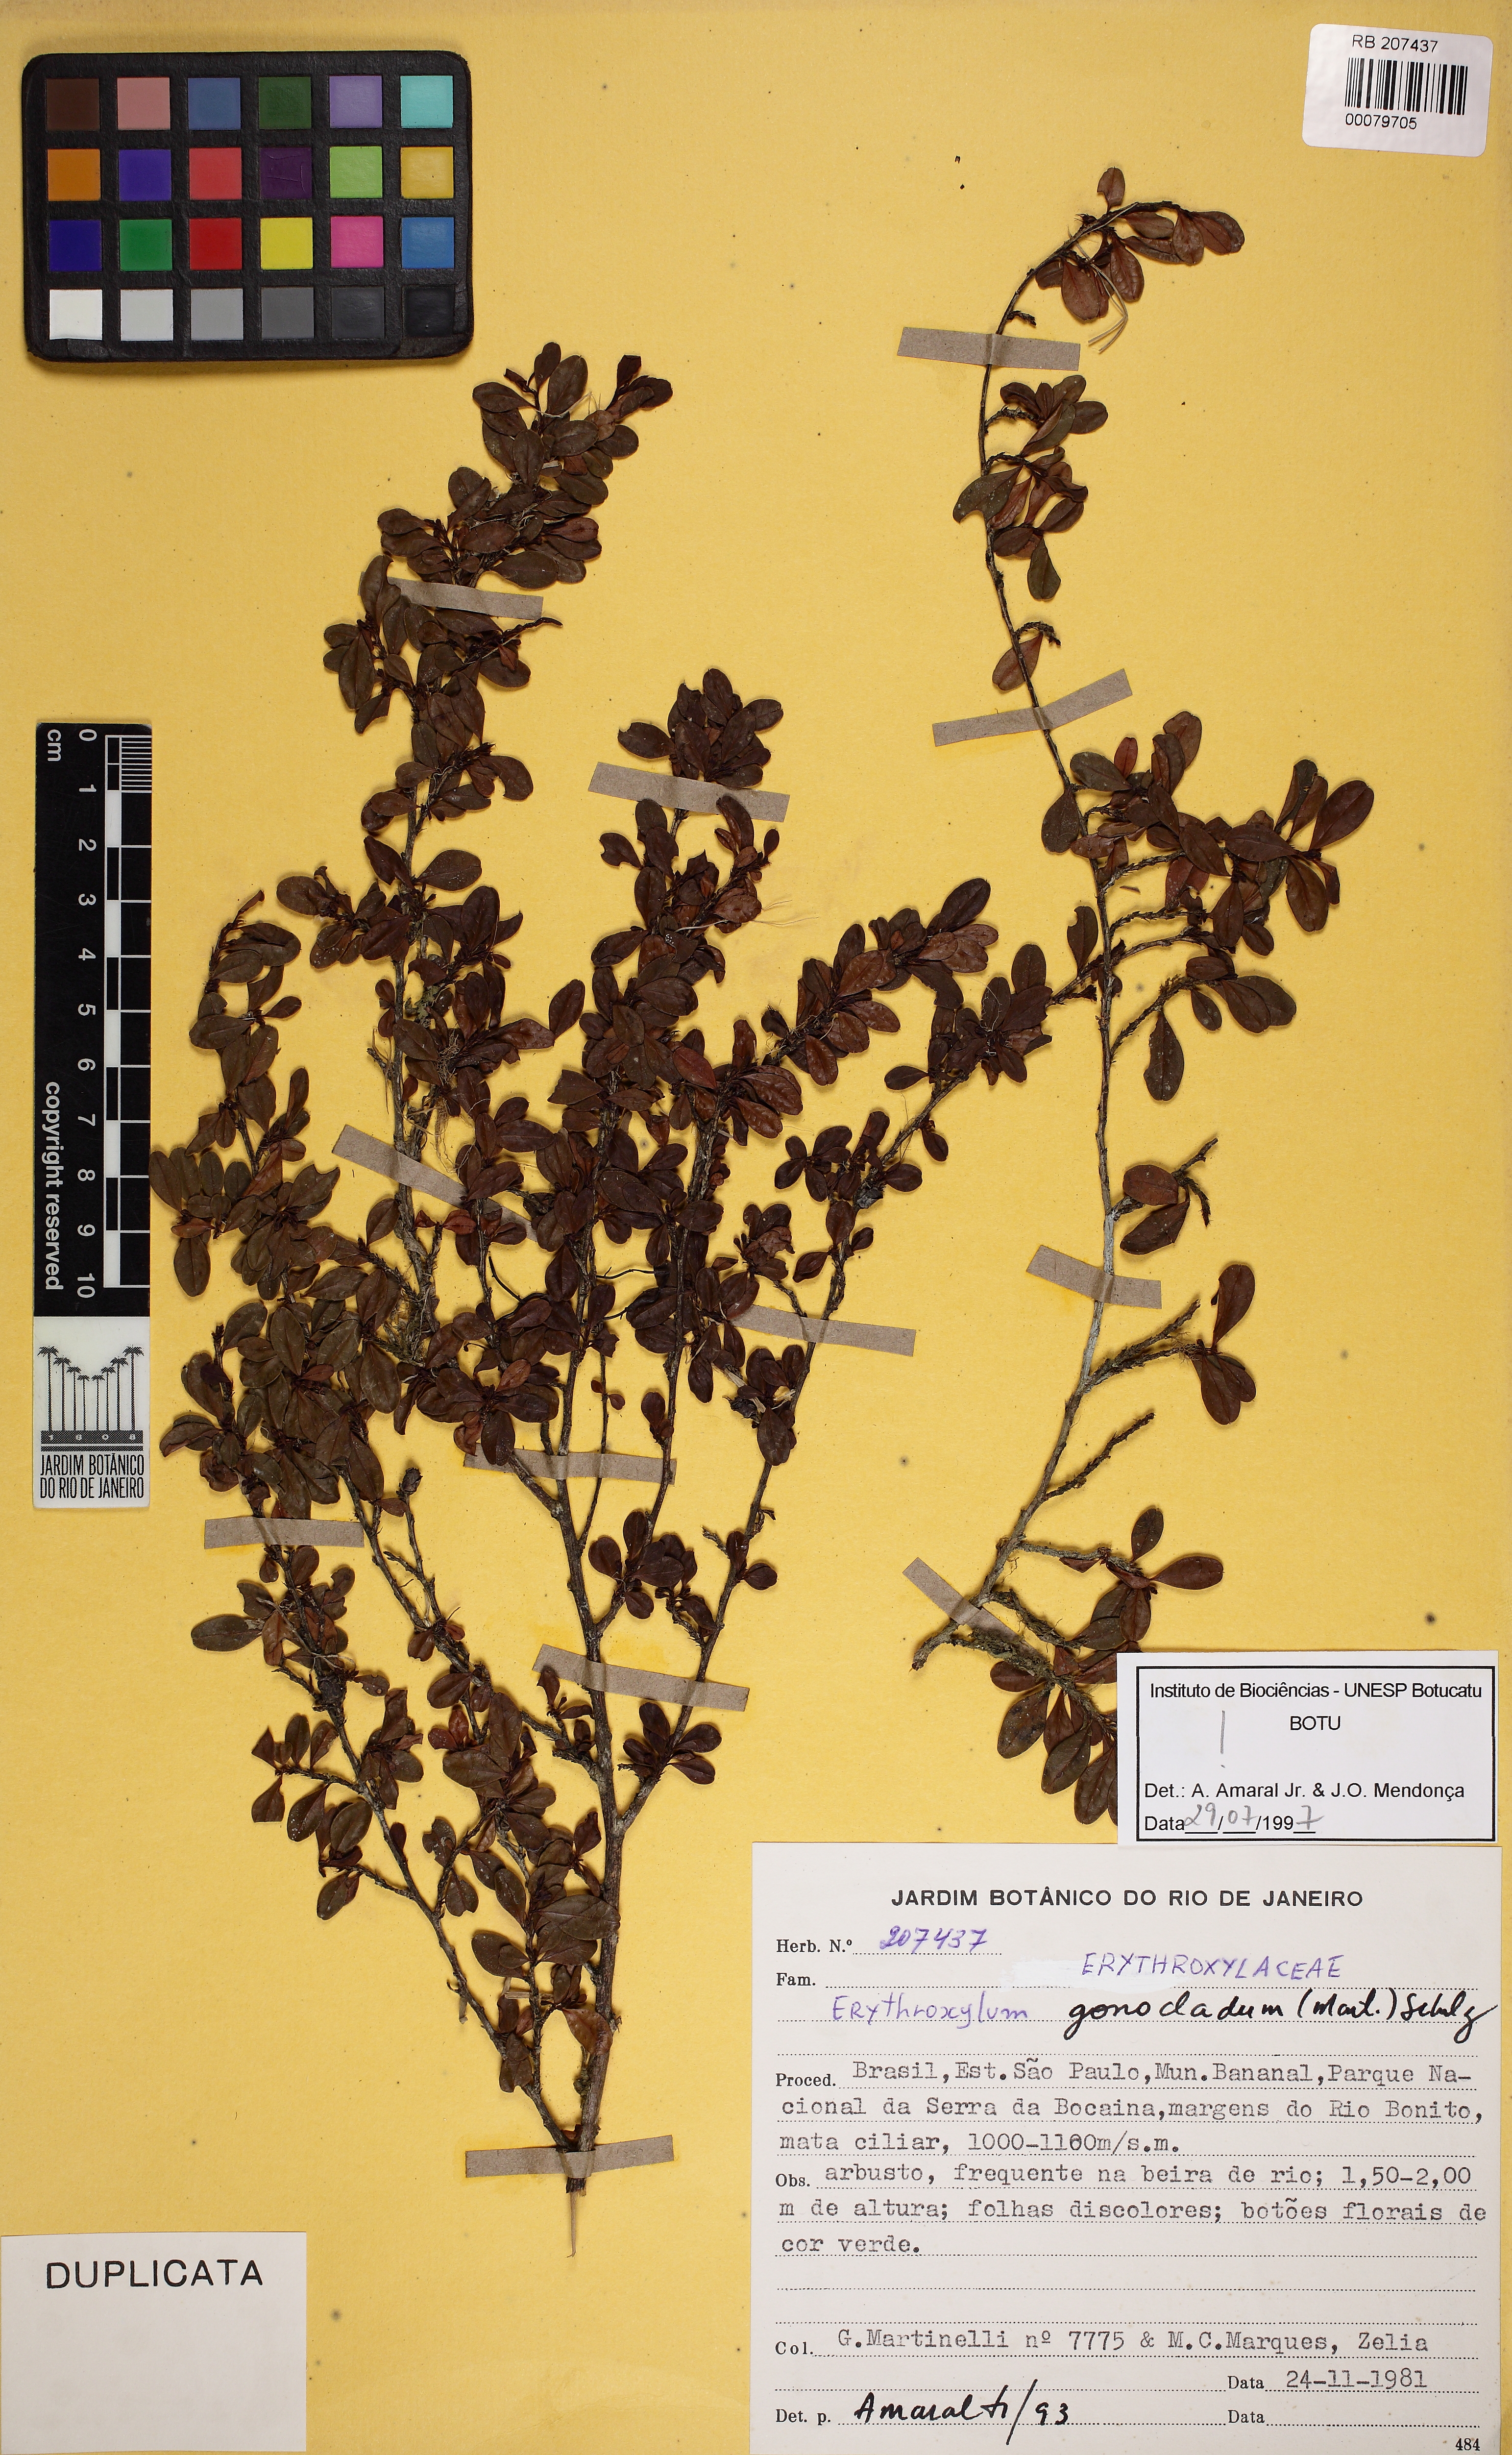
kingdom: Plantae
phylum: Tracheophyta
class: Magnoliopsida
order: Malpighiales
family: Erythroxylaceae
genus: Erythroxylum
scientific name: Erythroxylum gonoclados
